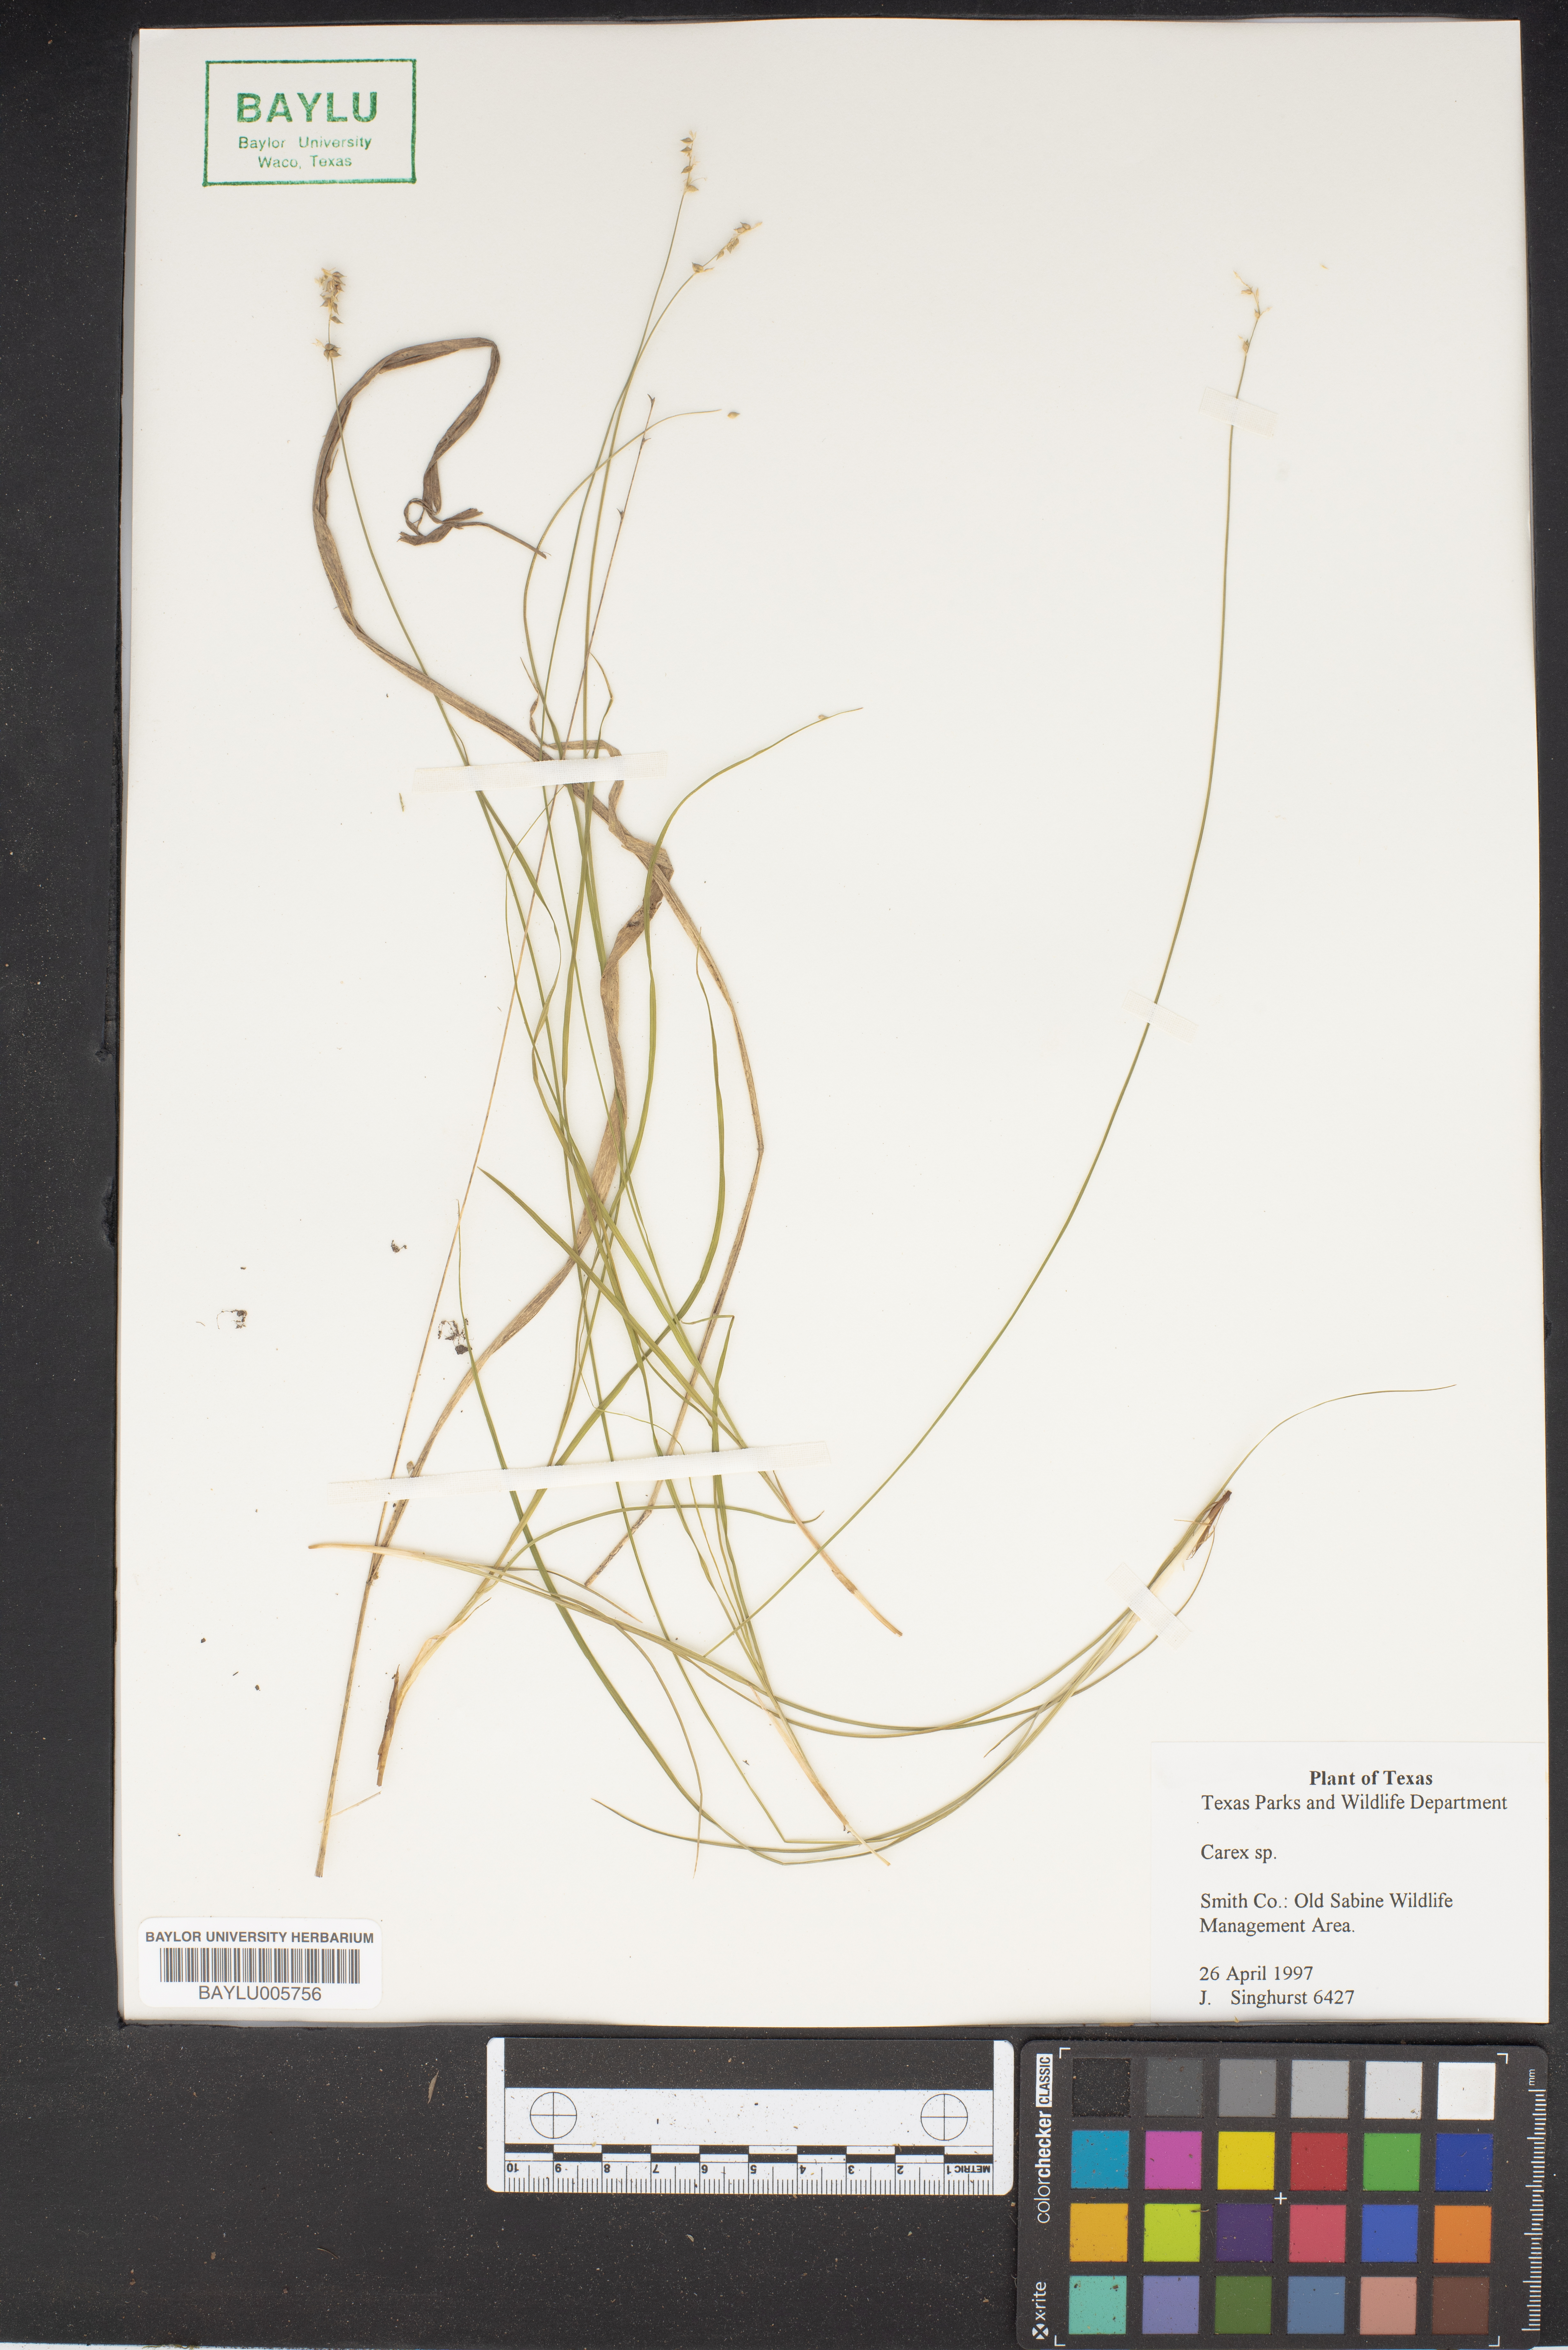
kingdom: Plantae
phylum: Tracheophyta
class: Liliopsida
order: Poales
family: Cyperaceae
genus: Carex
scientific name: Carex
